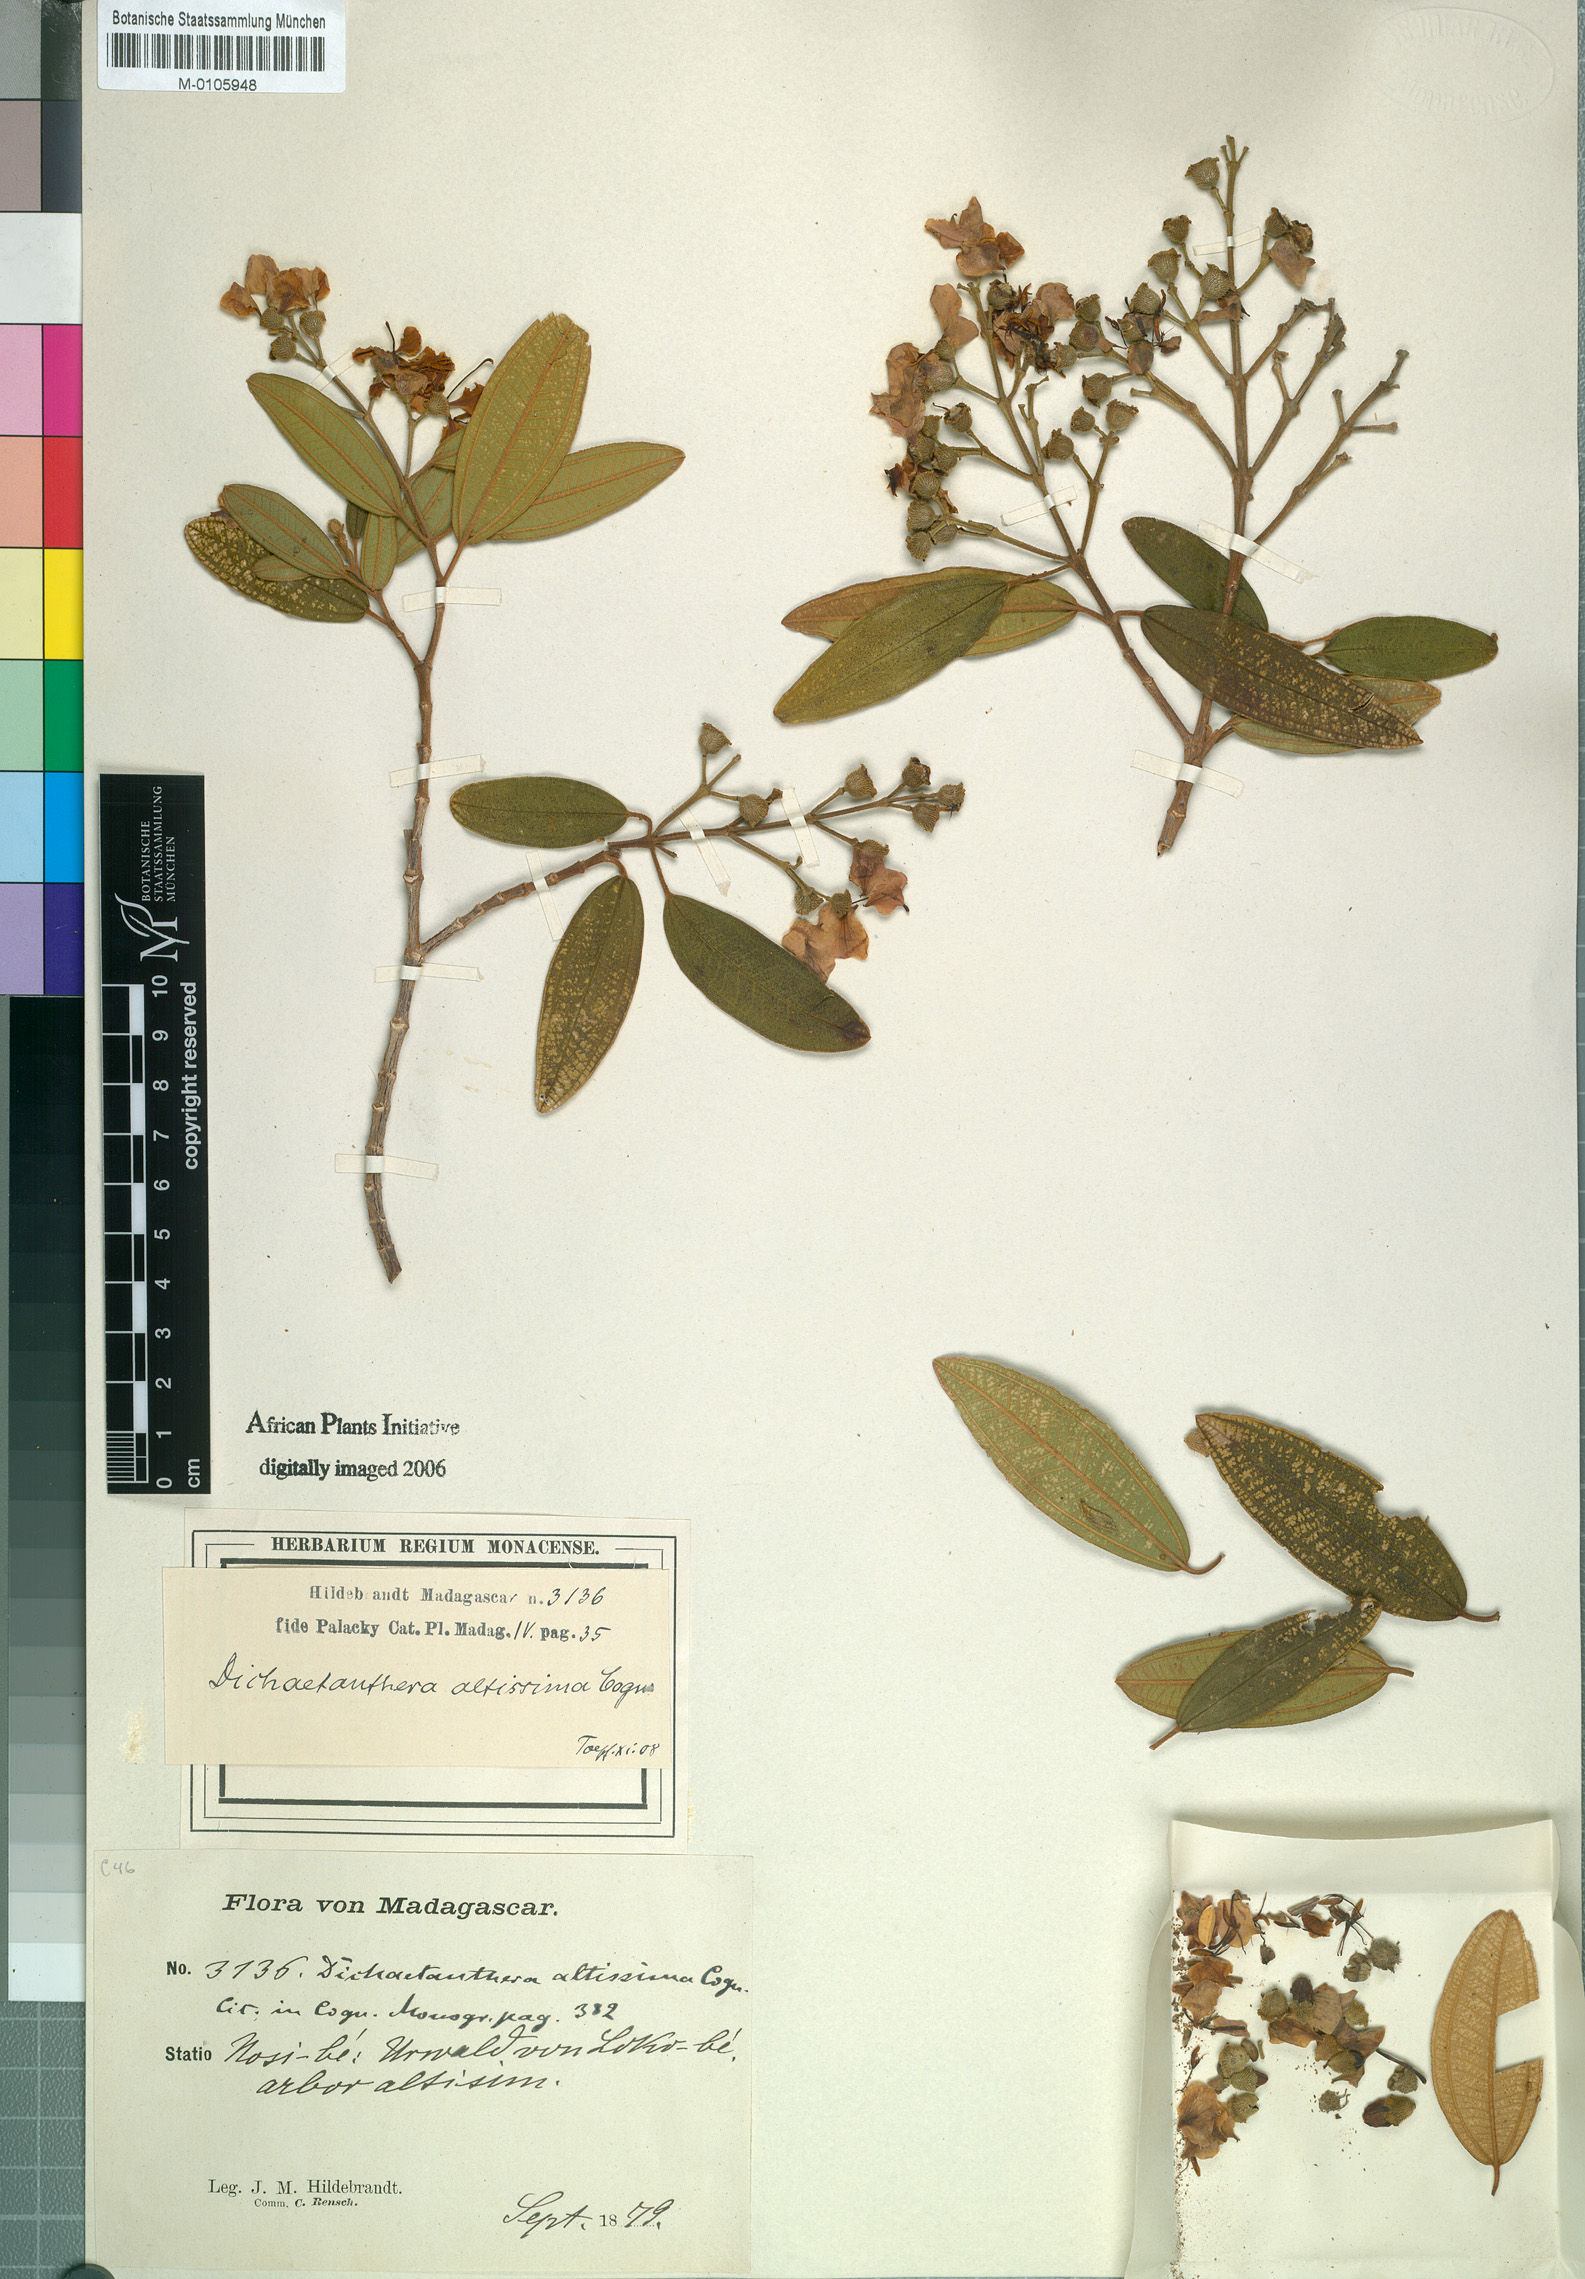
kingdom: Plantae
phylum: Tracheophyta
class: Magnoliopsida
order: Myrtales
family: Melastomataceae
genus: Dichaetanthera
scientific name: Dichaetanthera altissima
